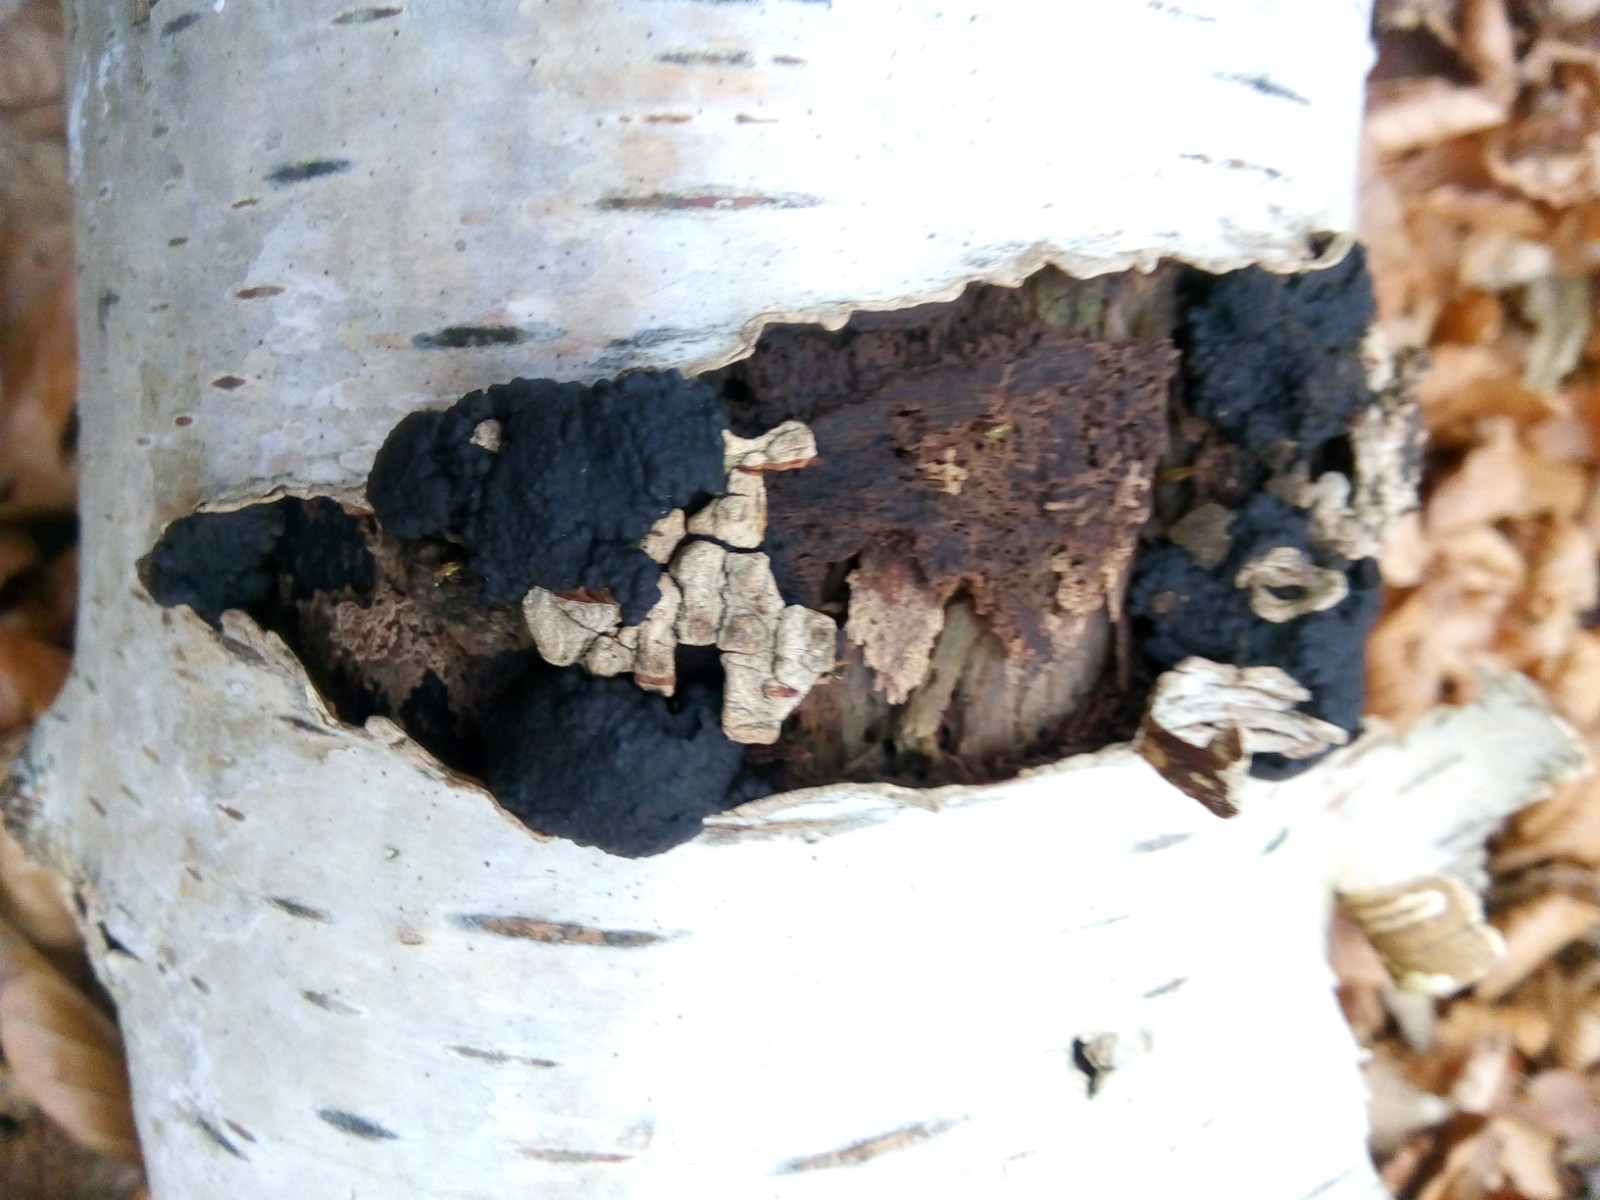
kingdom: Fungi
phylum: Ascomycota
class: Sordariomycetes
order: Xylariales
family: Hypoxylaceae
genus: Jackrogersella
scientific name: Jackrogersella multiformis
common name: foranderlig kulbær
